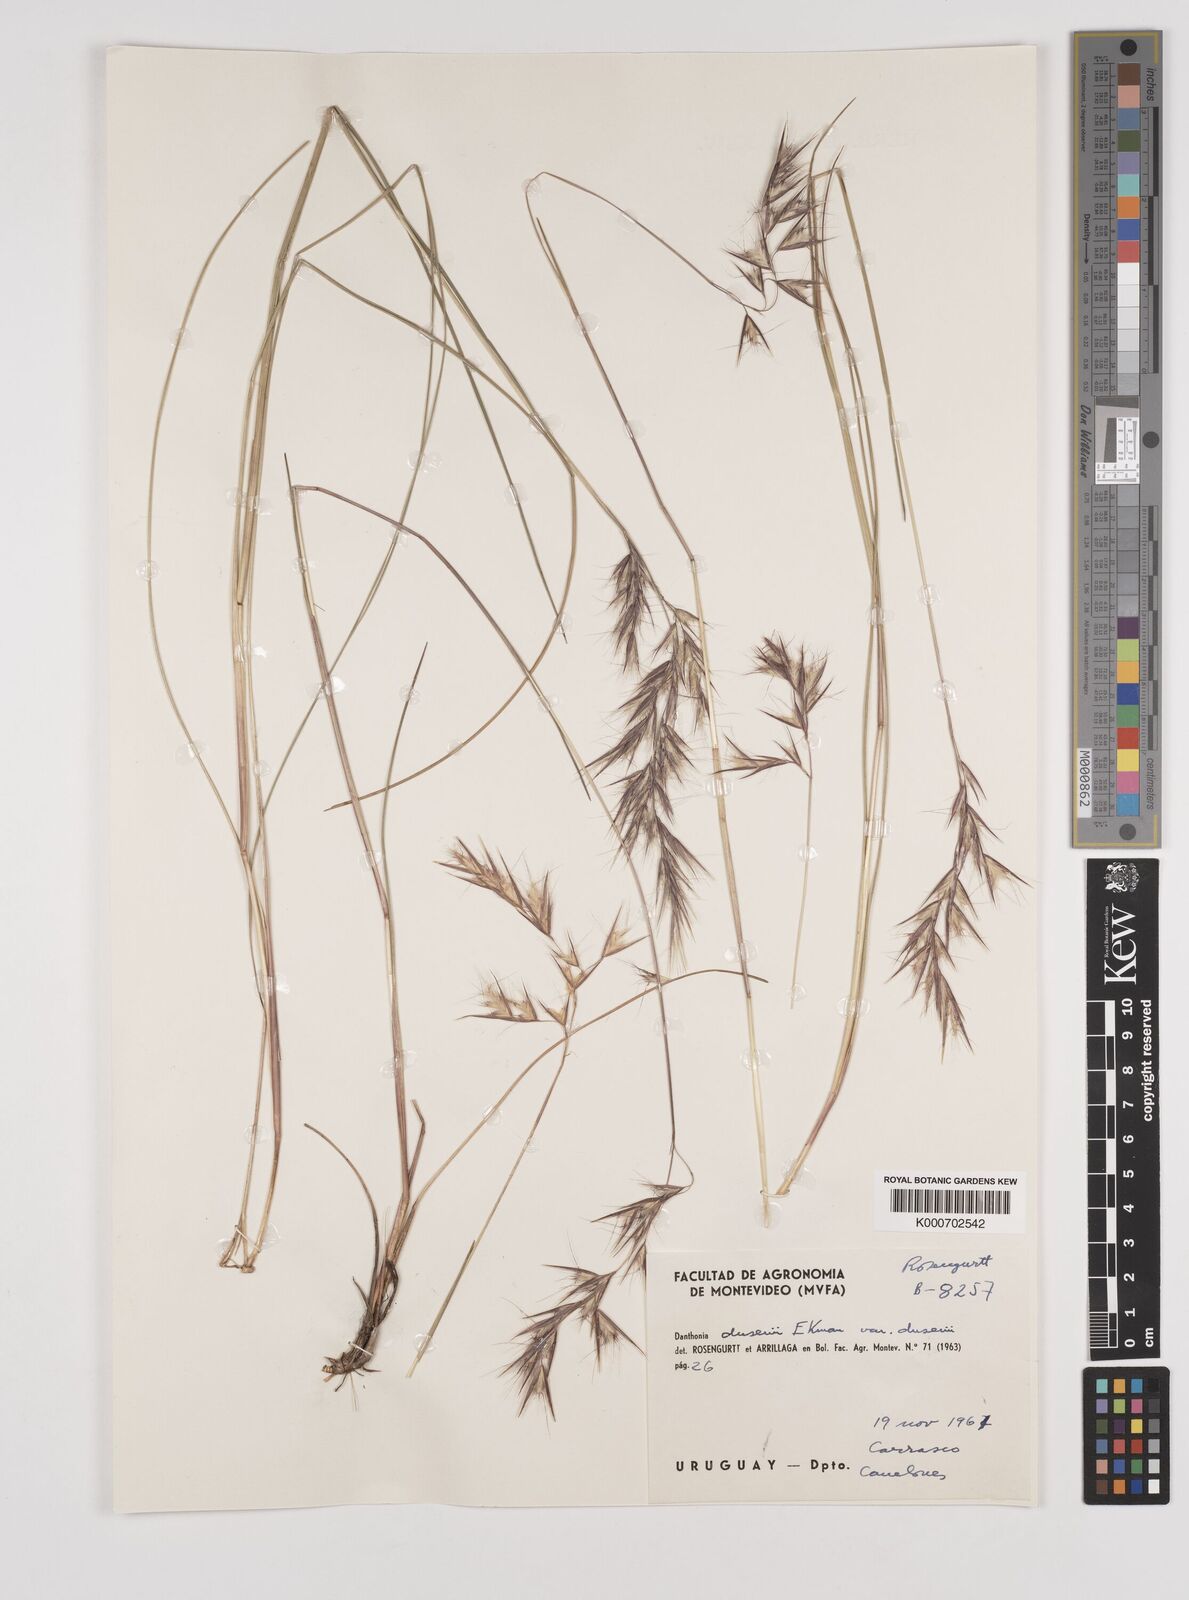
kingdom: Plantae
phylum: Tracheophyta
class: Liliopsida
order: Poales
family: Poaceae
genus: Danthonia
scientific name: Danthonia secundiflora
